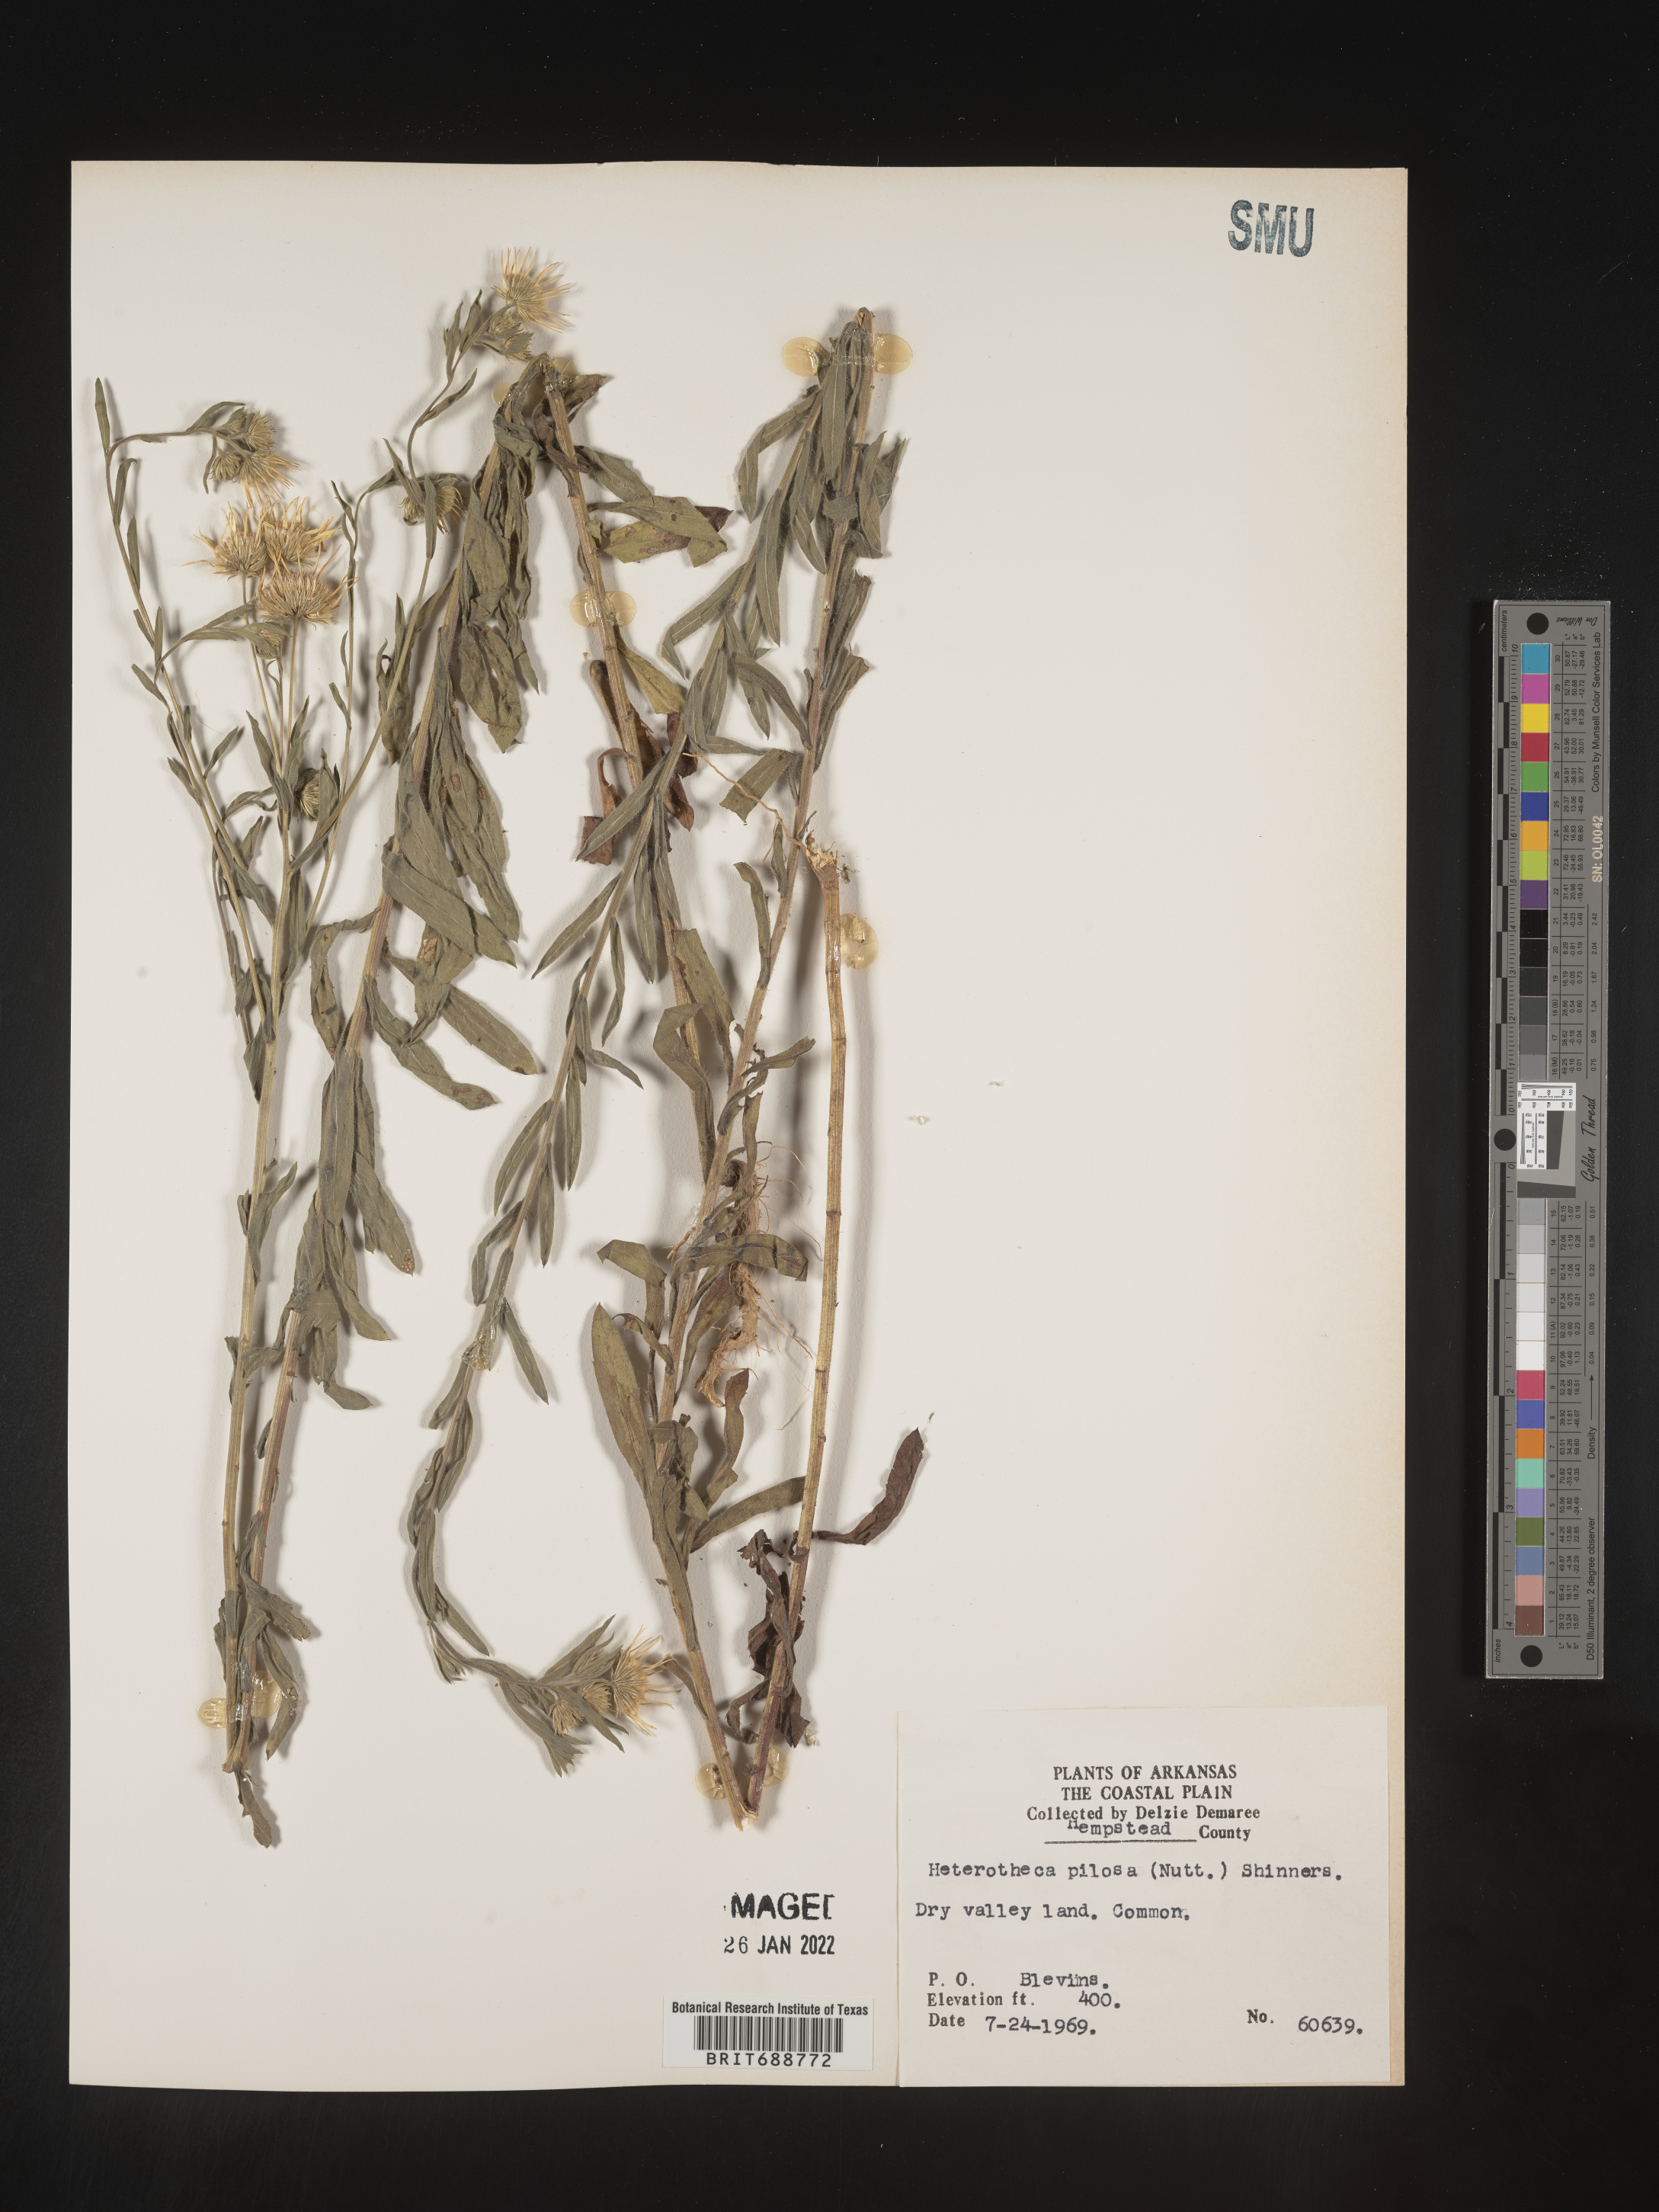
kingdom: Plantae
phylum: Tracheophyta
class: Magnoliopsida
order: Asterales
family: Asteraceae
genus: Bradburia
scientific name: Bradburia pilosa
